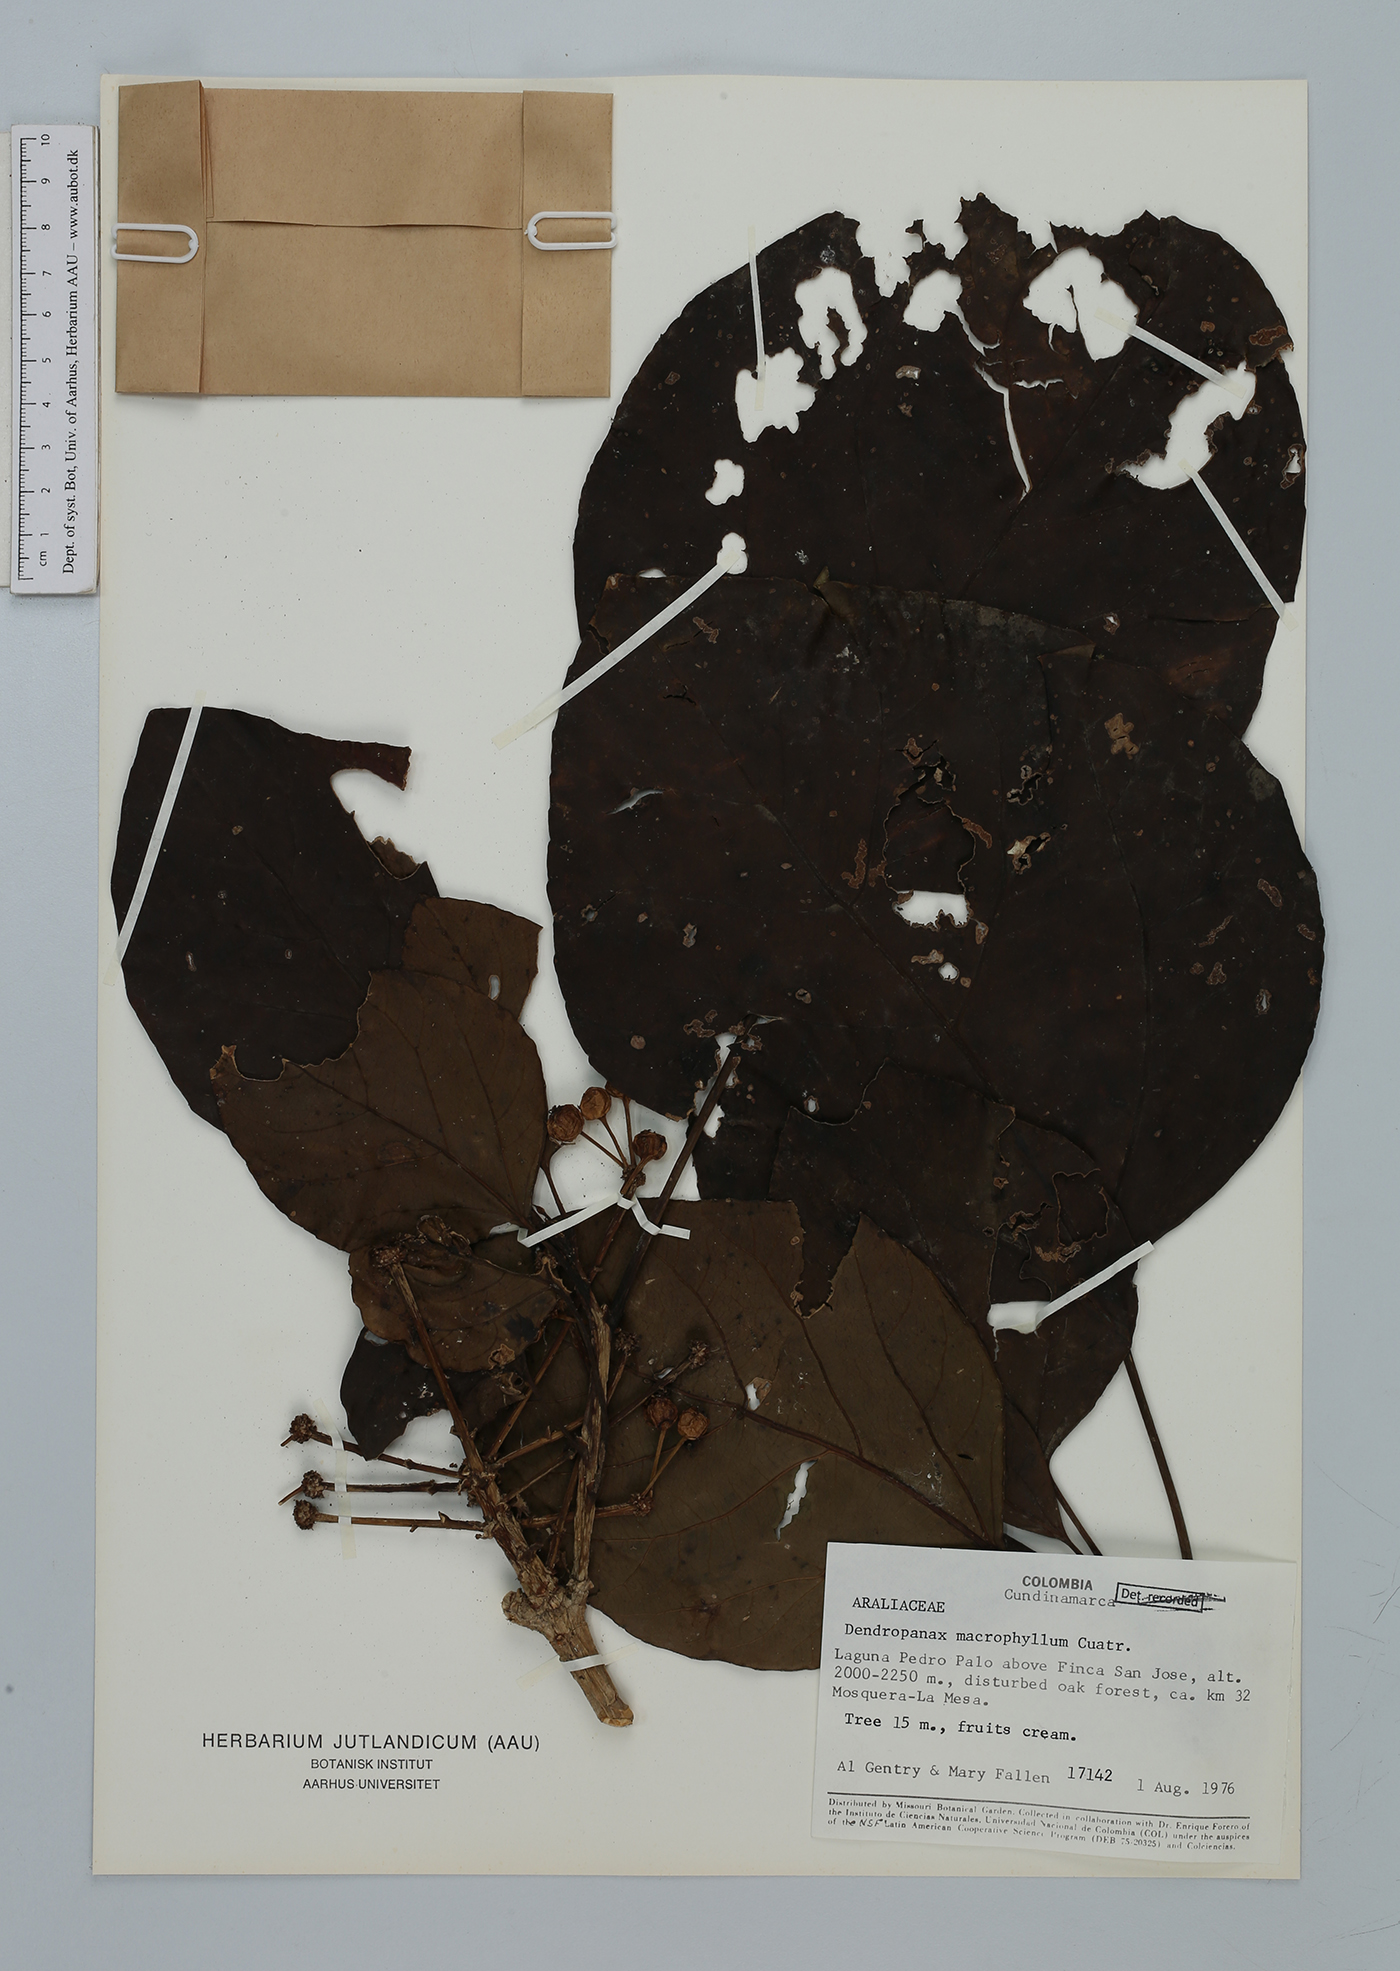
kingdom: Plantae
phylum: Tracheophyta
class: Magnoliopsida
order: Apiales
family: Araliaceae
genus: Dendropanax
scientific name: Dendropanax macrophyllus
